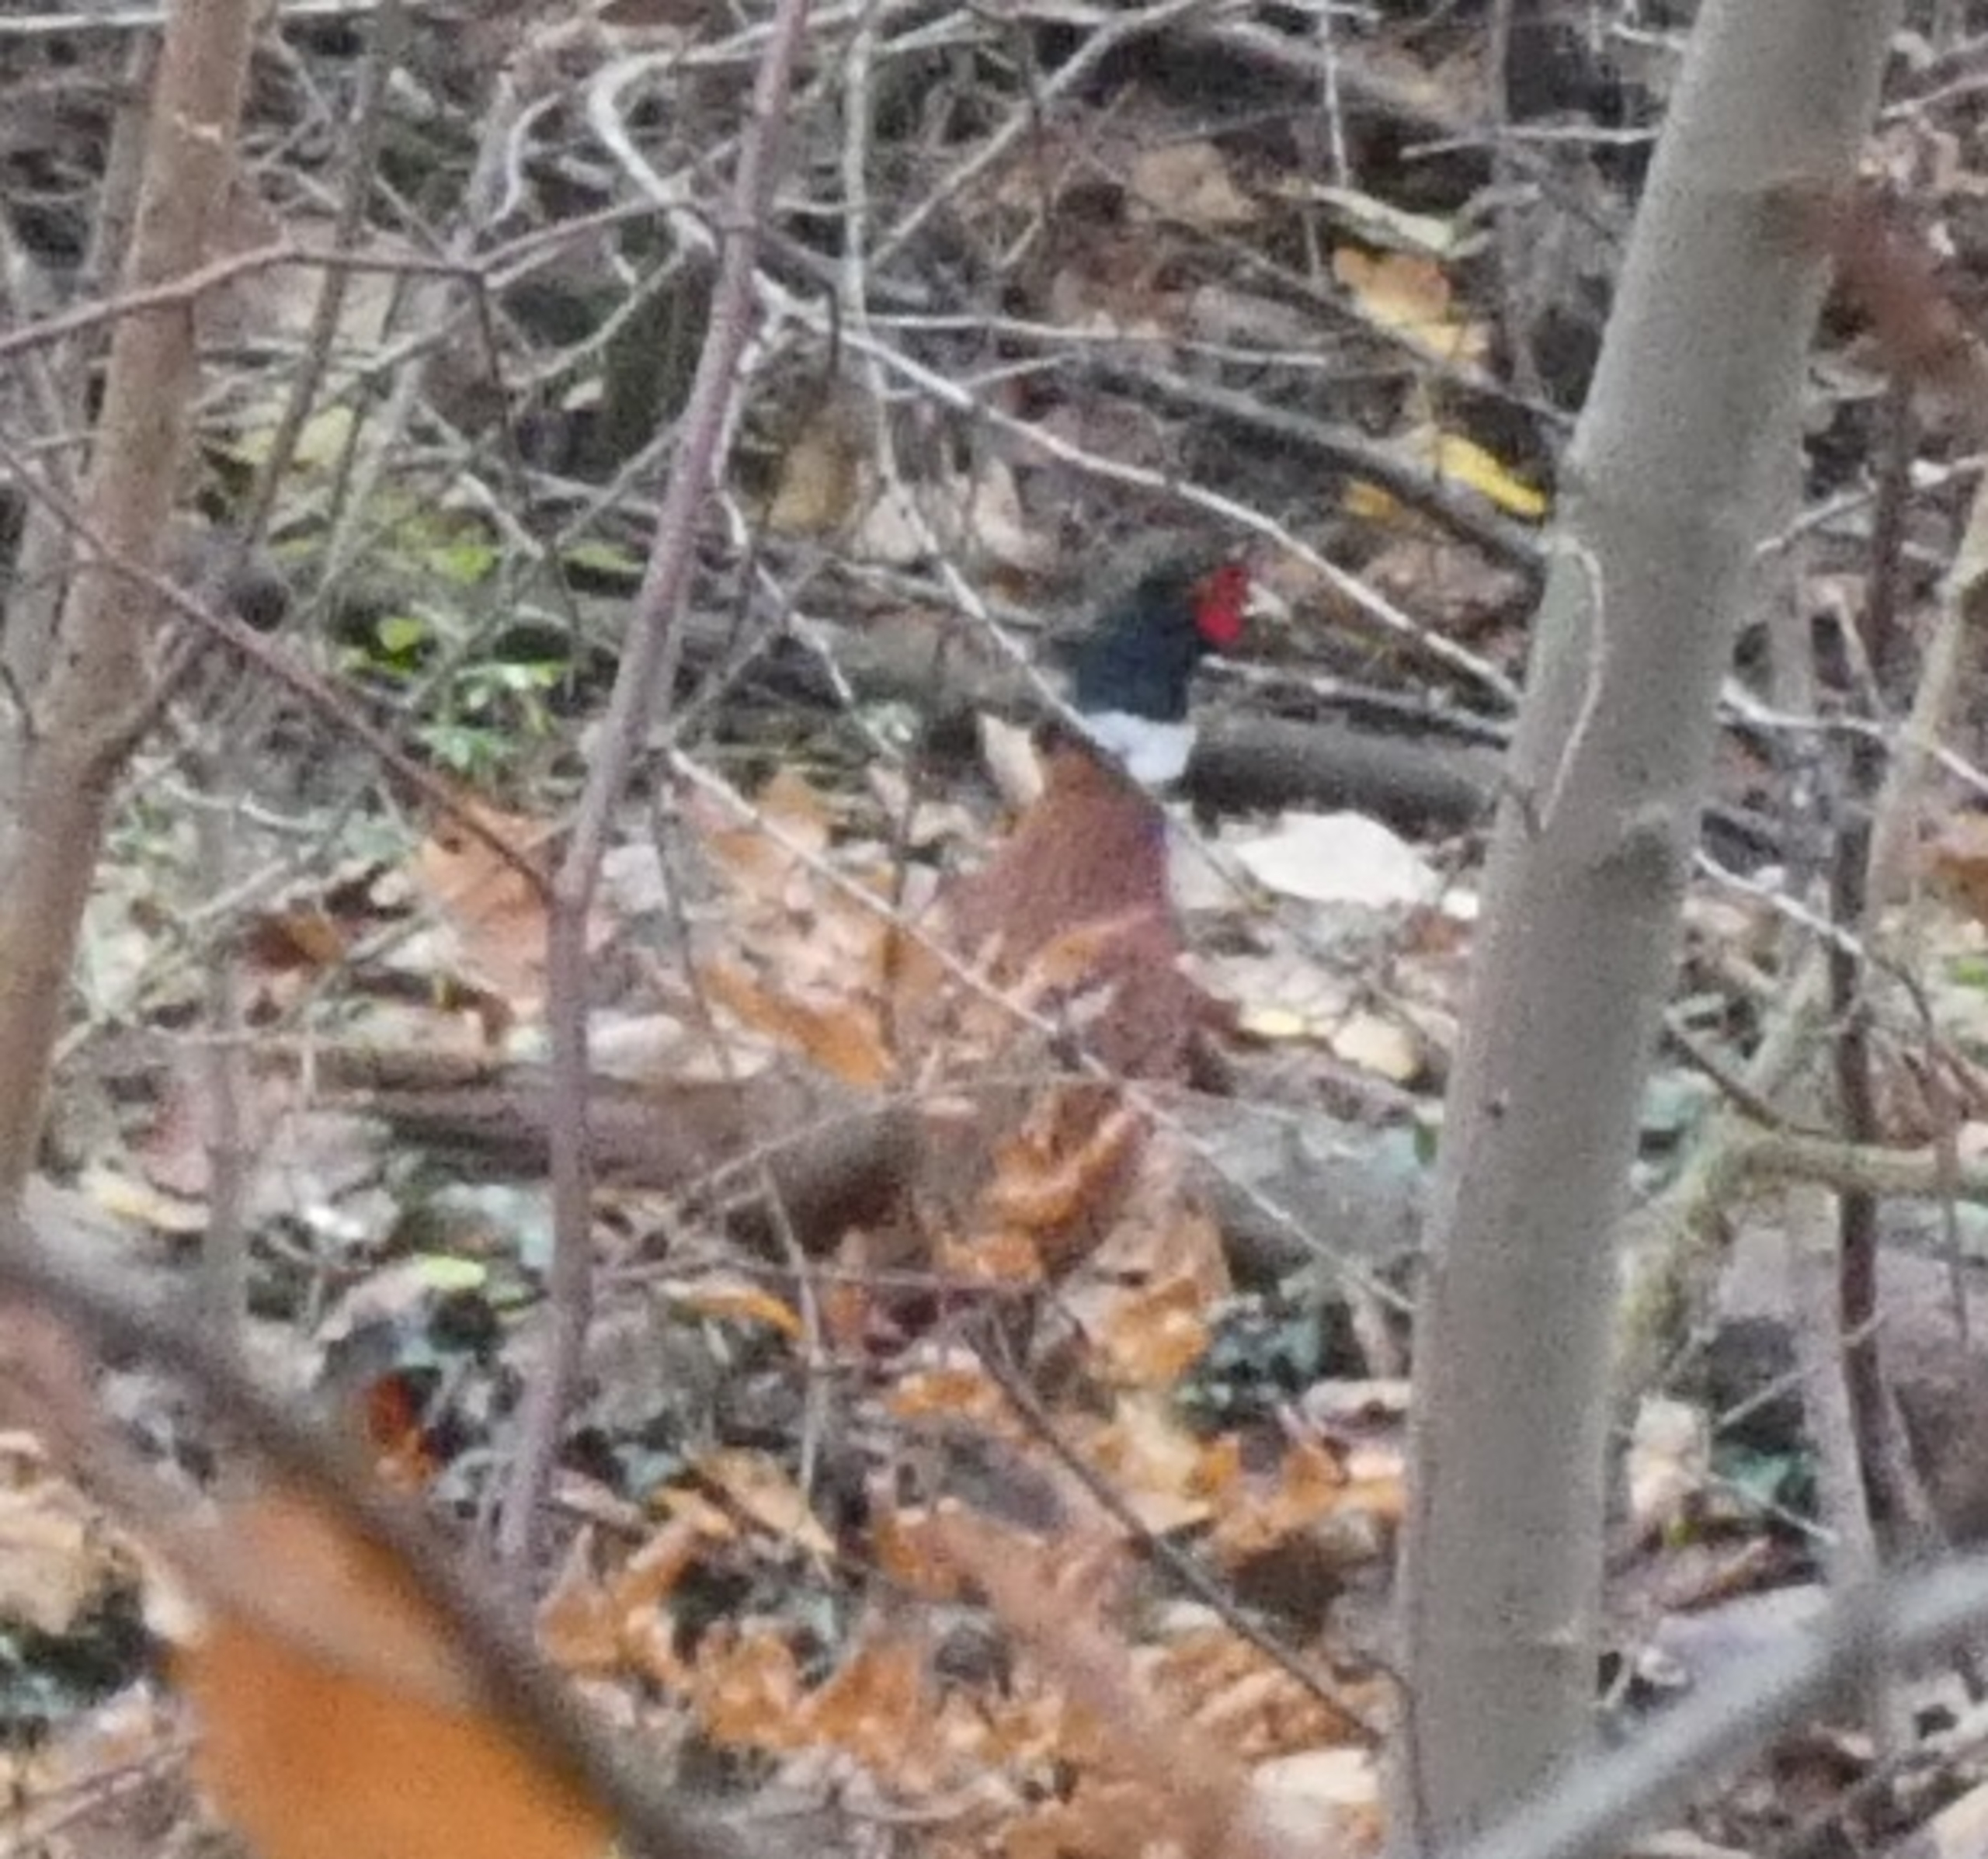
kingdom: Animalia
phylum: Chordata
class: Aves
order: Galliformes
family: Phasianidae
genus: Phasianus
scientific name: Phasianus colchicus
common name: Fasan
